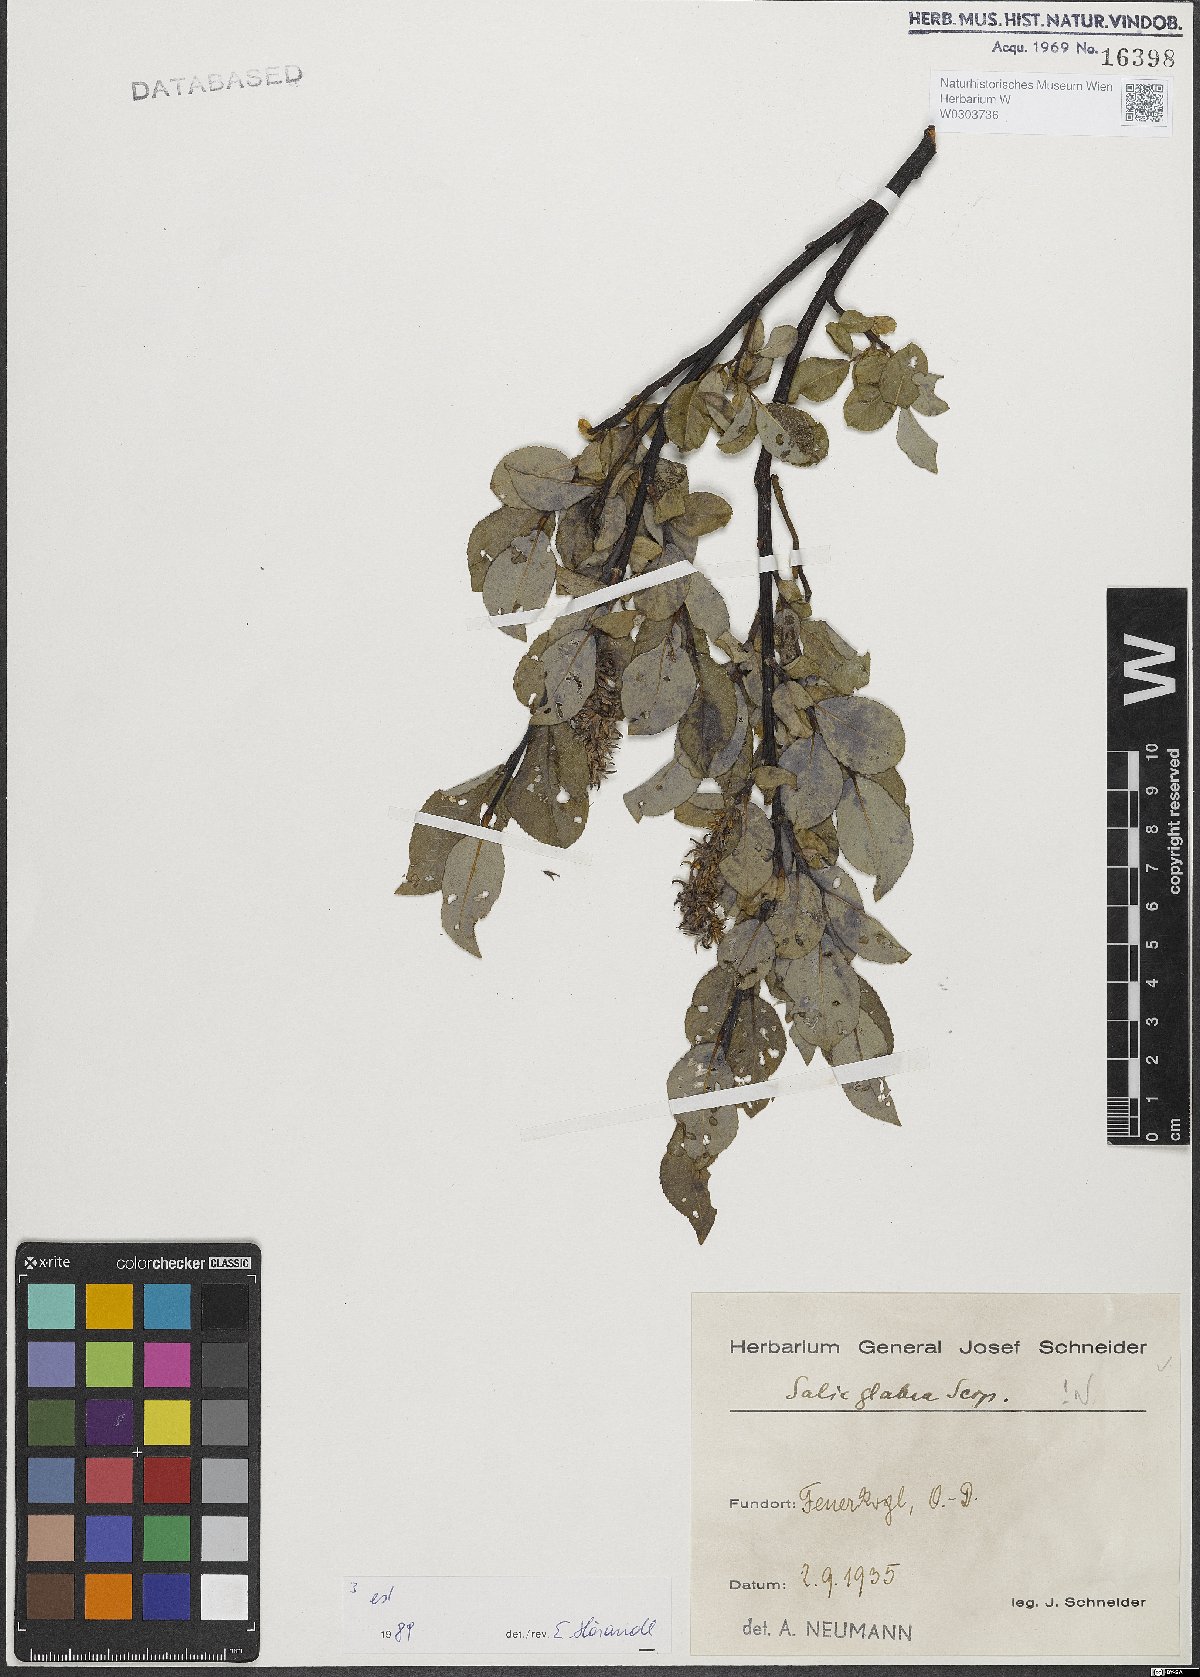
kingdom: Plantae
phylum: Tracheophyta
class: Magnoliopsida
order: Malpighiales
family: Salicaceae
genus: Salix
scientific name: Salix glabra
